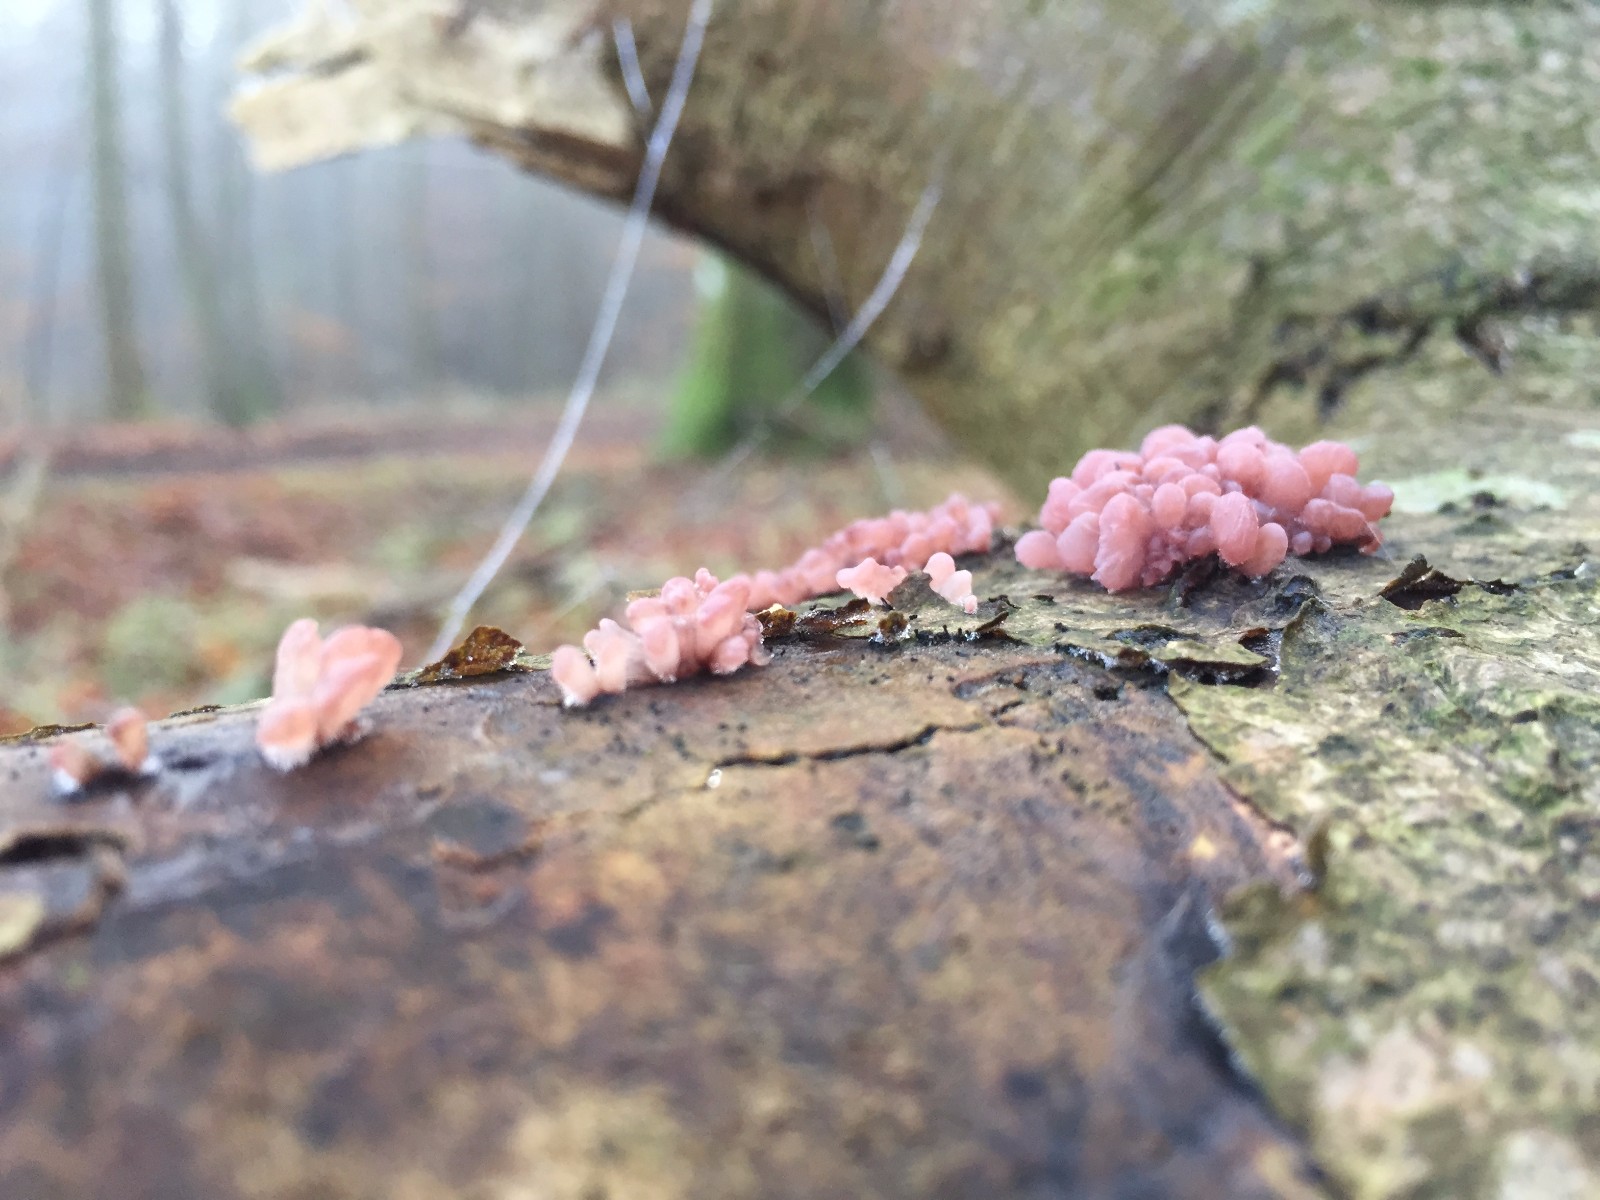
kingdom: Fungi
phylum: Ascomycota
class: Leotiomycetes
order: Helotiales
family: Gelatinodiscaceae
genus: Ascocoryne
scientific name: Ascocoryne sarcoides
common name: rødlilla sejskive
